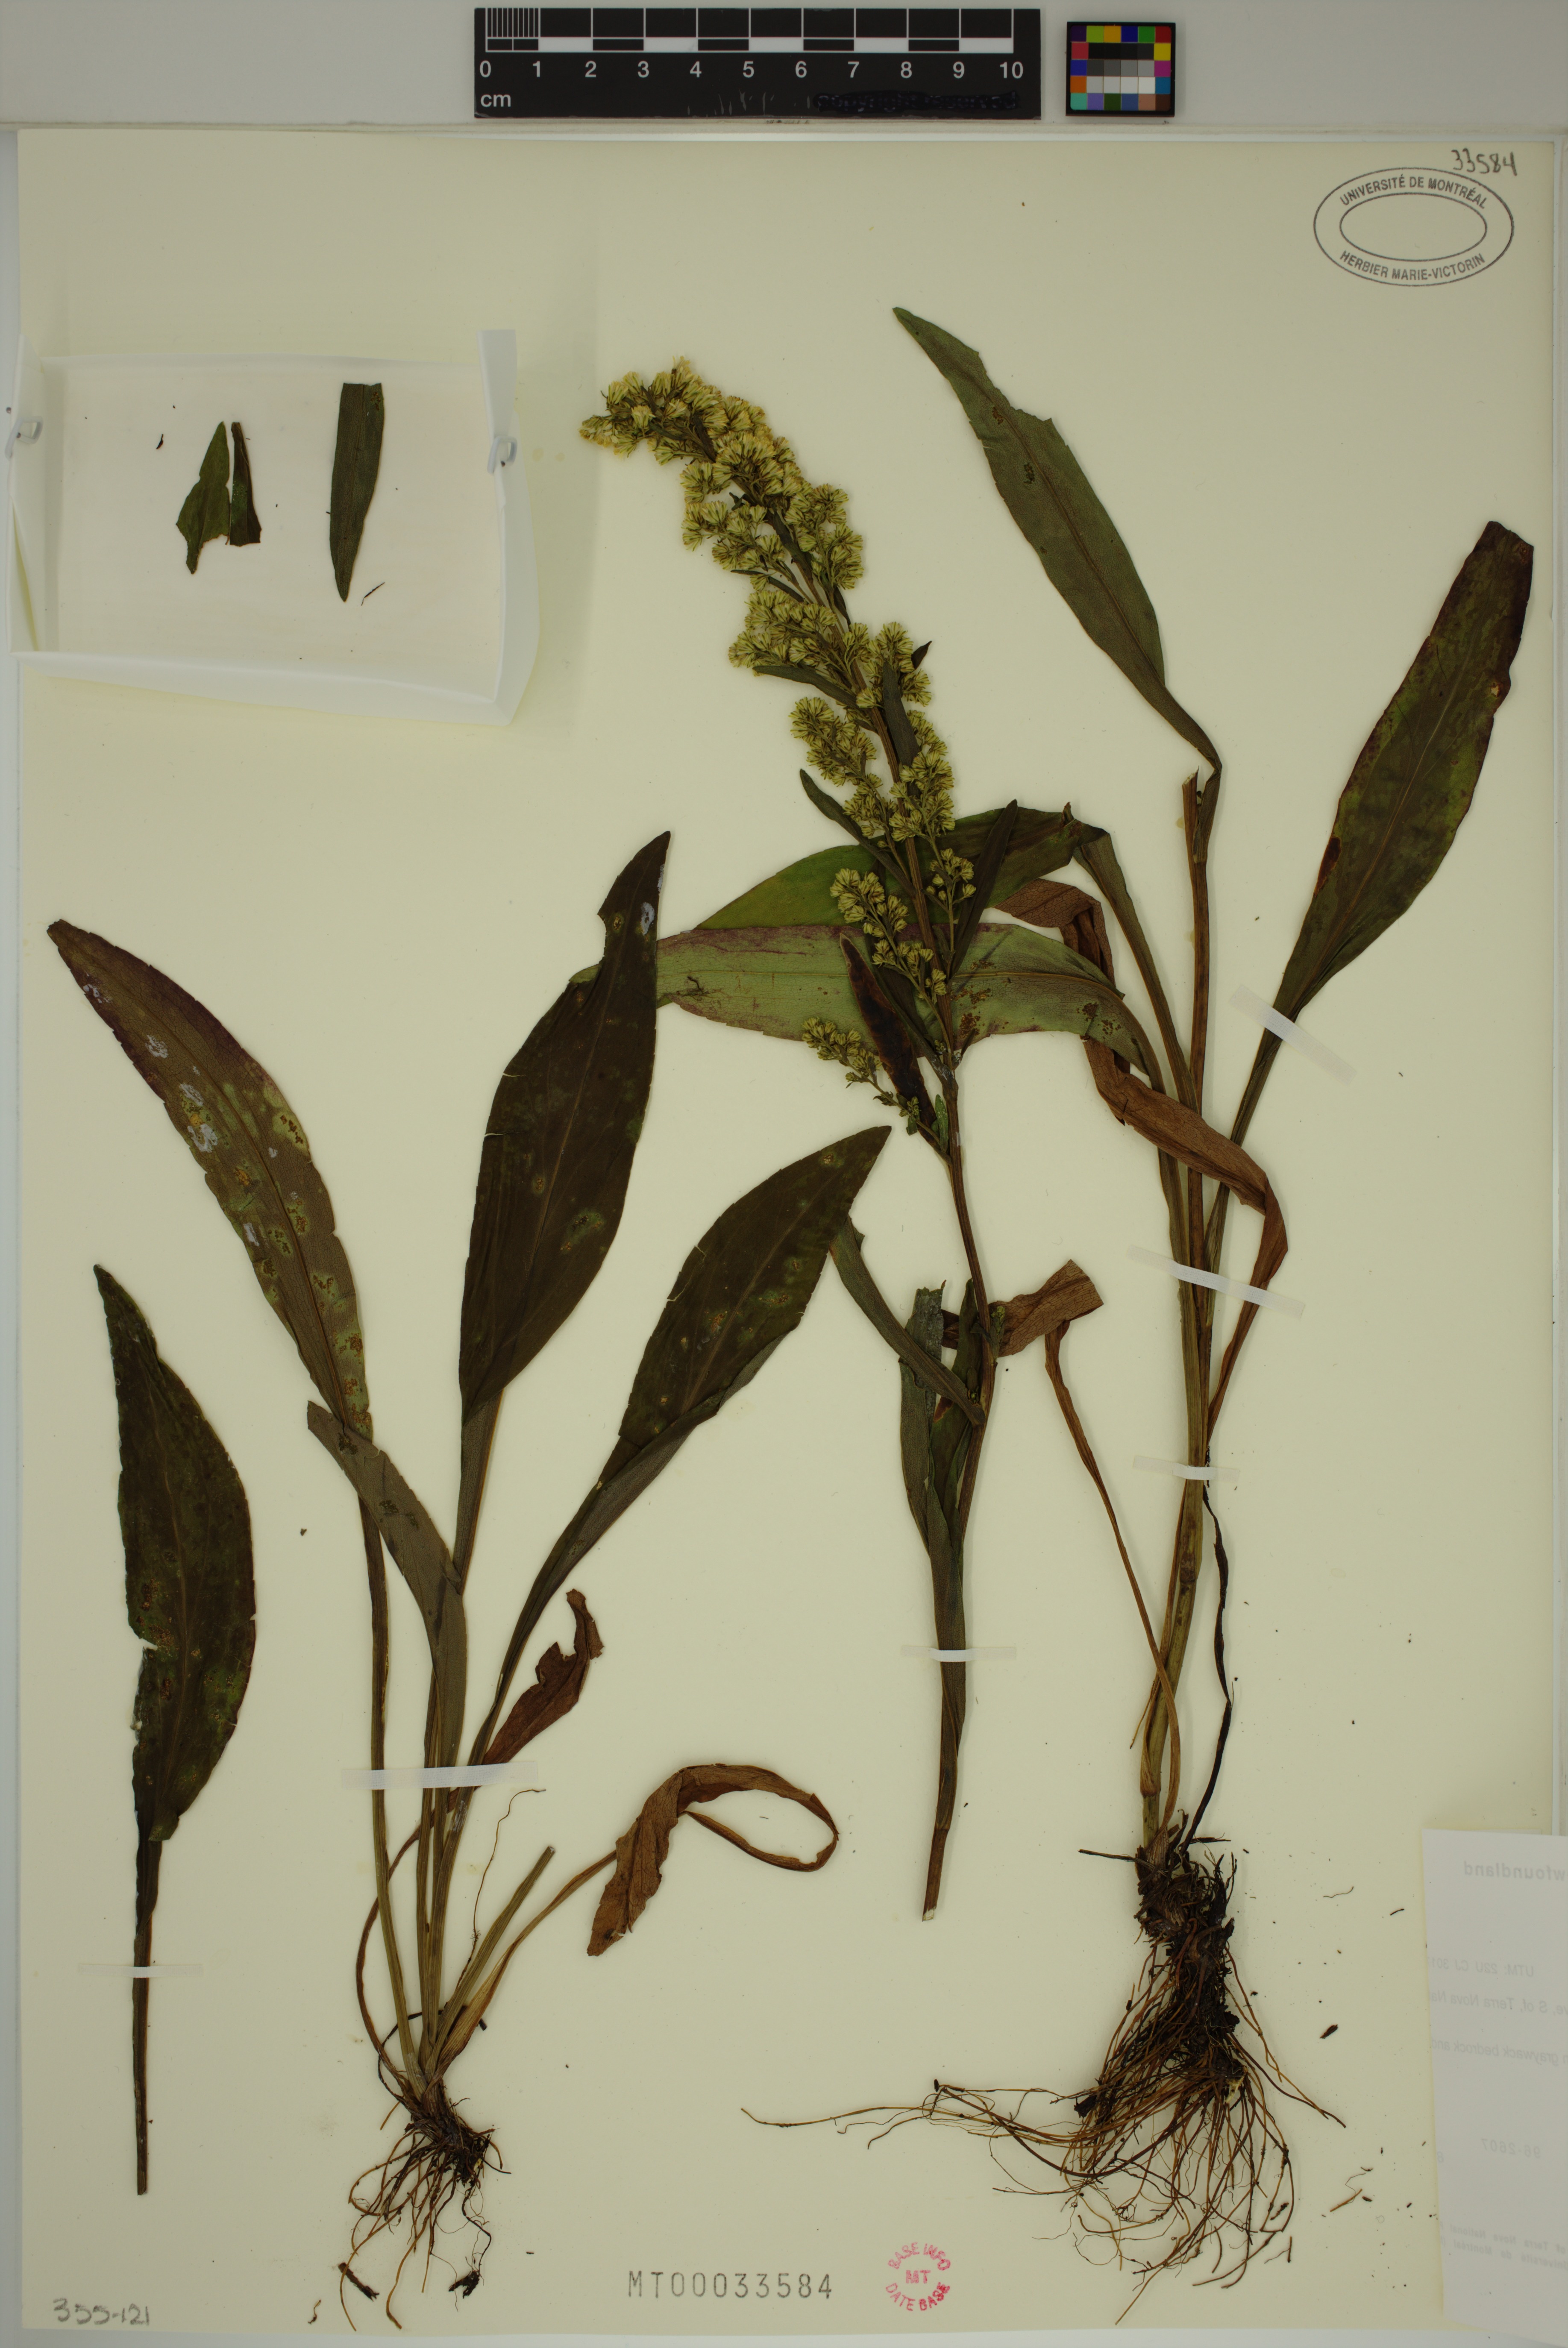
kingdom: Plantae
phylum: Tracheophyta
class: Magnoliopsida
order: Asterales
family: Asteraceae
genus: Solidago
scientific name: Solidago uliginosa
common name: Bog goldenrod
